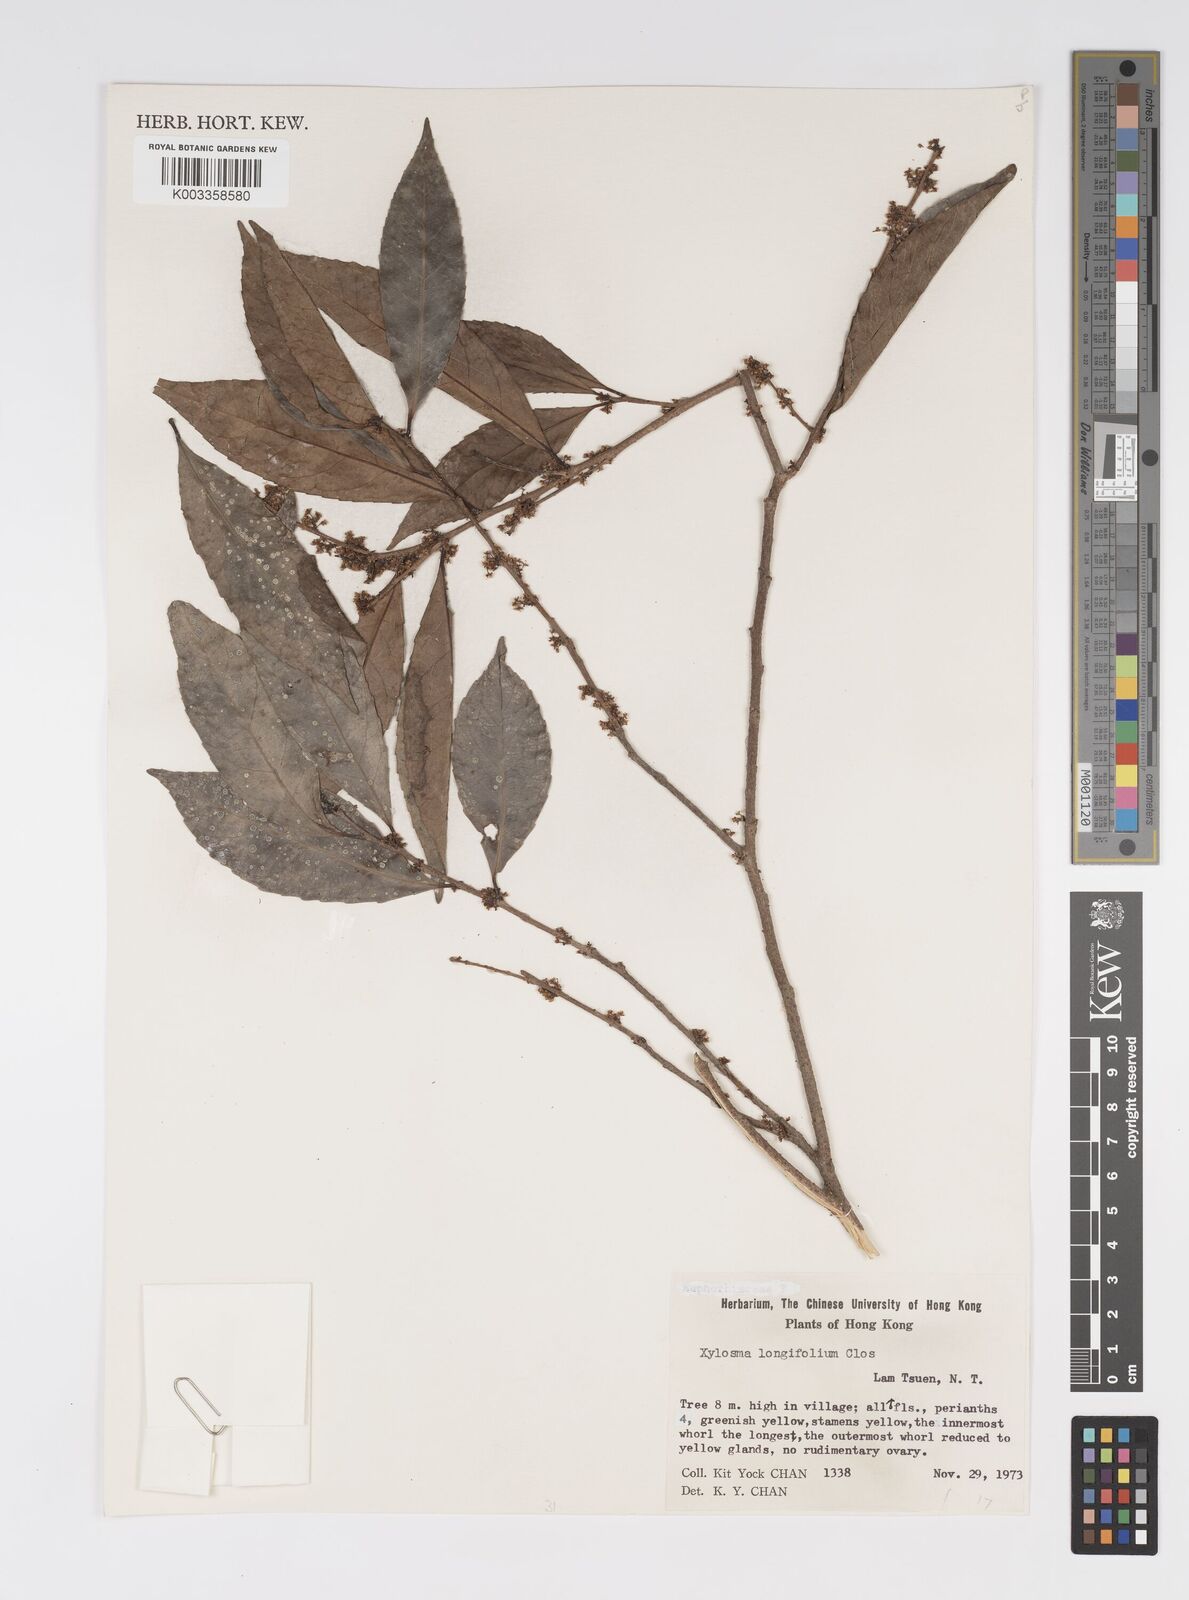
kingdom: Plantae
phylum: Tracheophyta
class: Magnoliopsida
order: Malpighiales
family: Salicaceae
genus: Xylosma
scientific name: Xylosma longifolia
